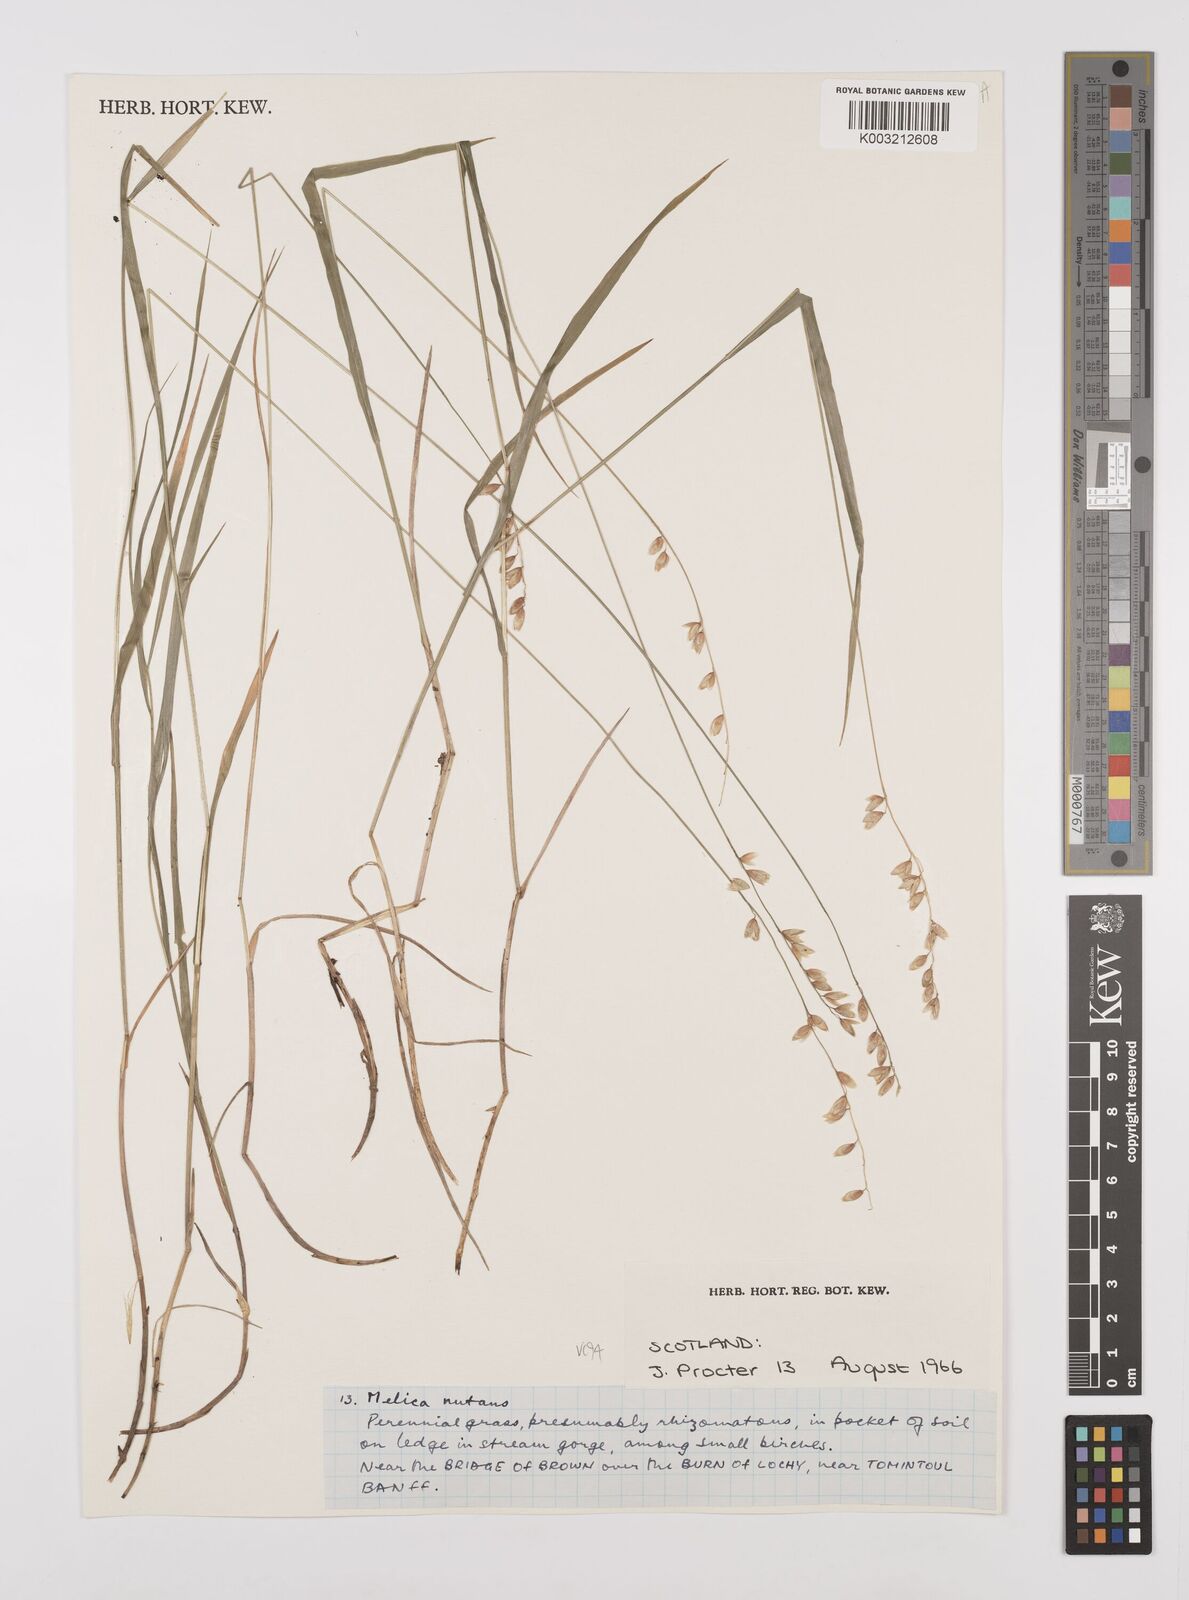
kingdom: Plantae
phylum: Tracheophyta
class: Liliopsida
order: Poales
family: Poaceae
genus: Melica
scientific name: Melica
